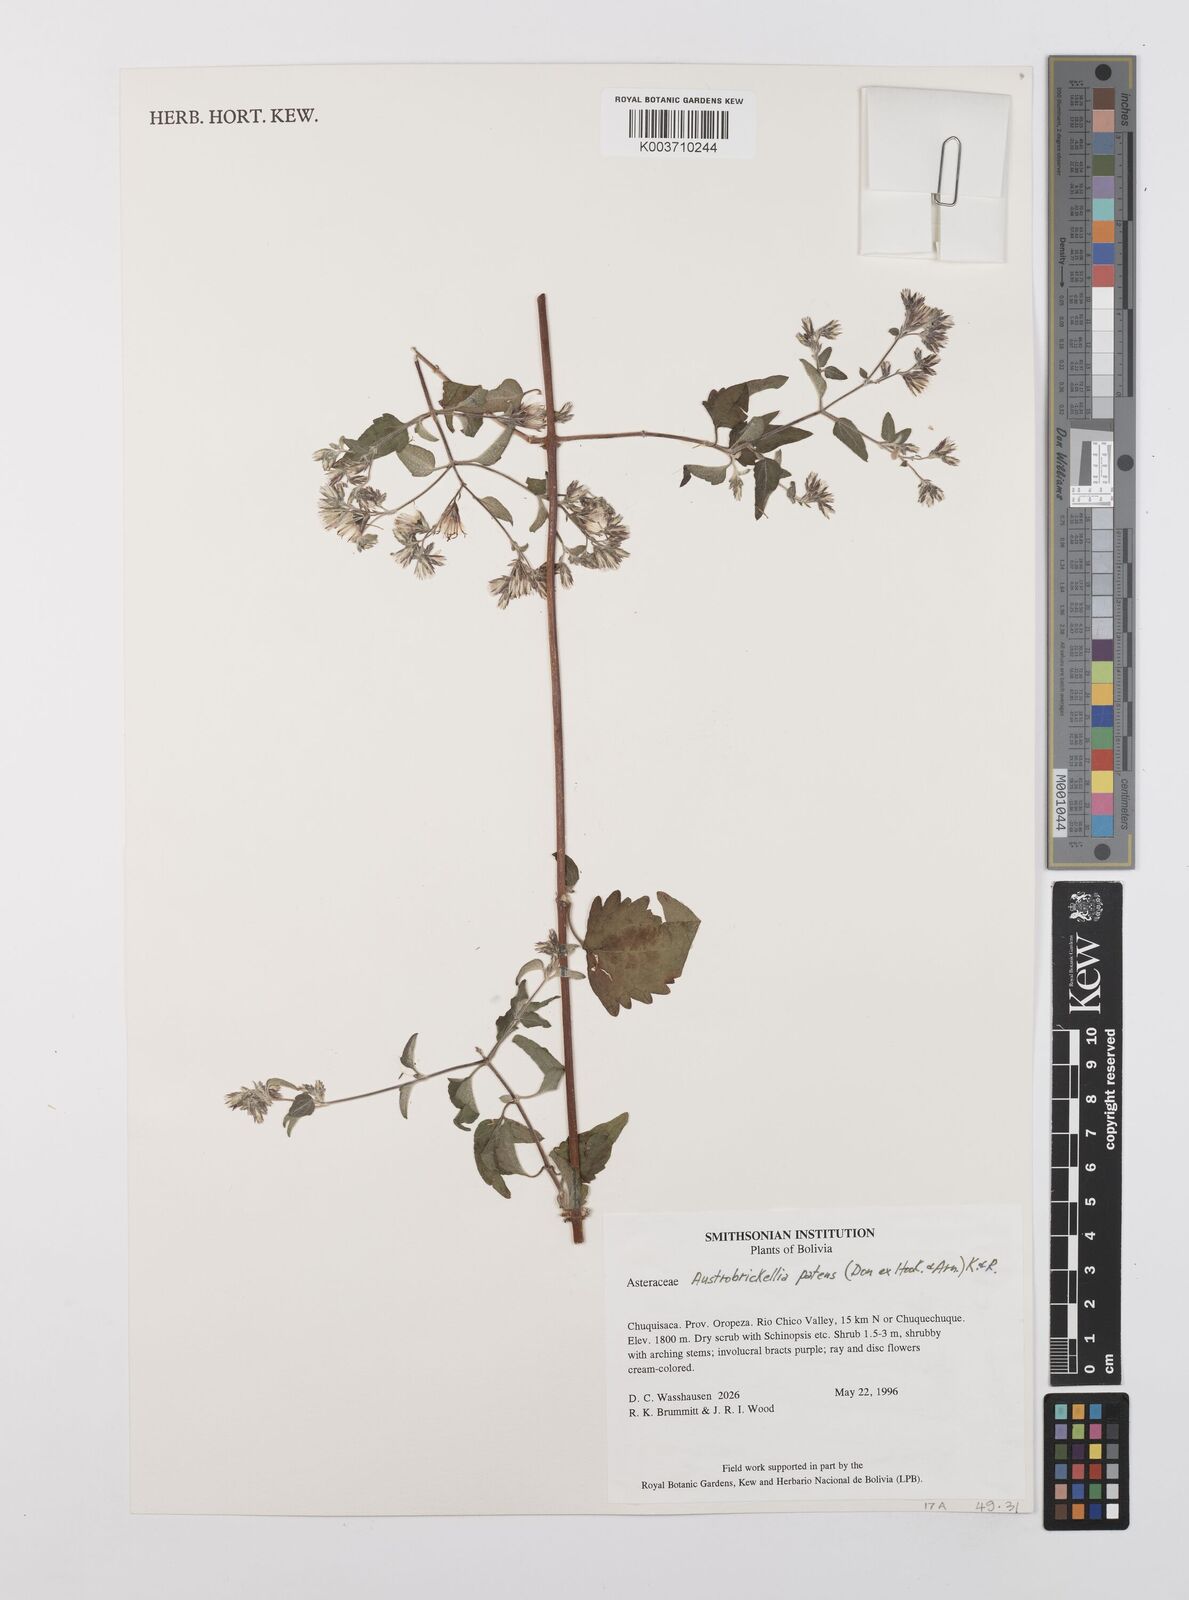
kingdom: Plantae
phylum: Tracheophyta
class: Magnoliopsida
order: Asterales
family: Asteraceae
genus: Austrobrickellia
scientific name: Austrobrickellia patens
